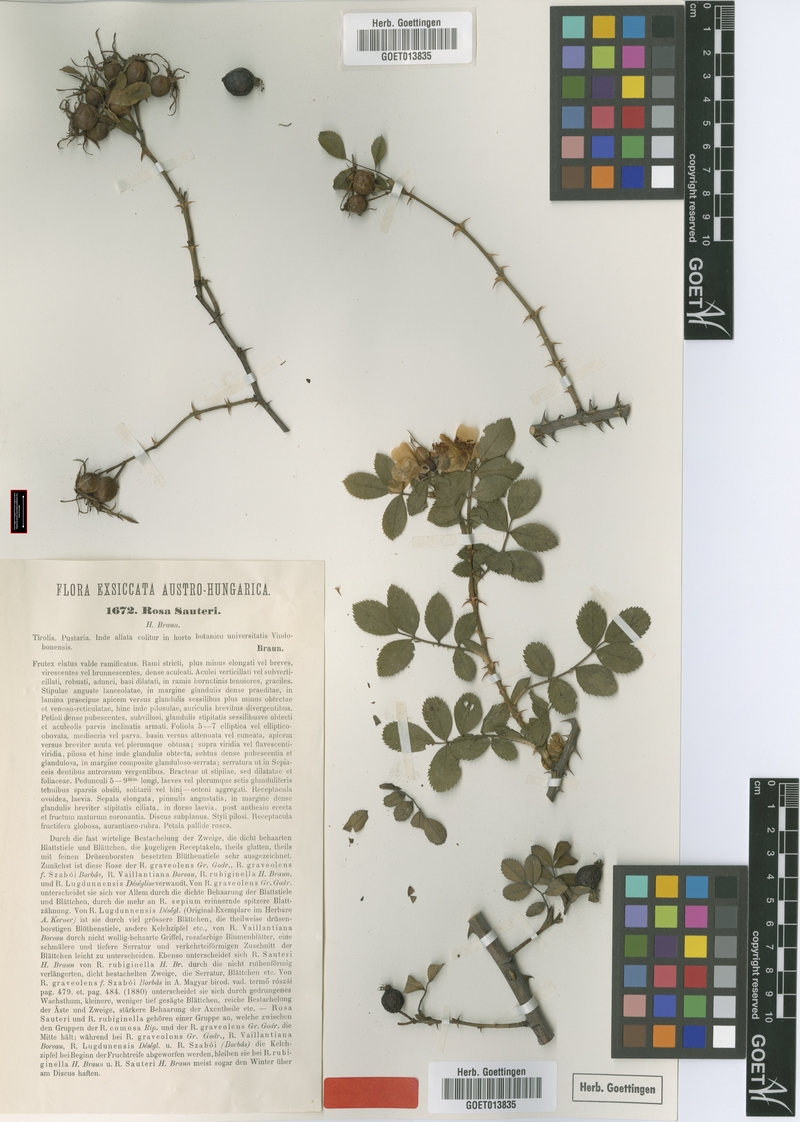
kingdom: Plantae
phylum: Tracheophyta
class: Magnoliopsida
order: Rosales
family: Rosaceae
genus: Rosa
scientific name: Rosa inodora
